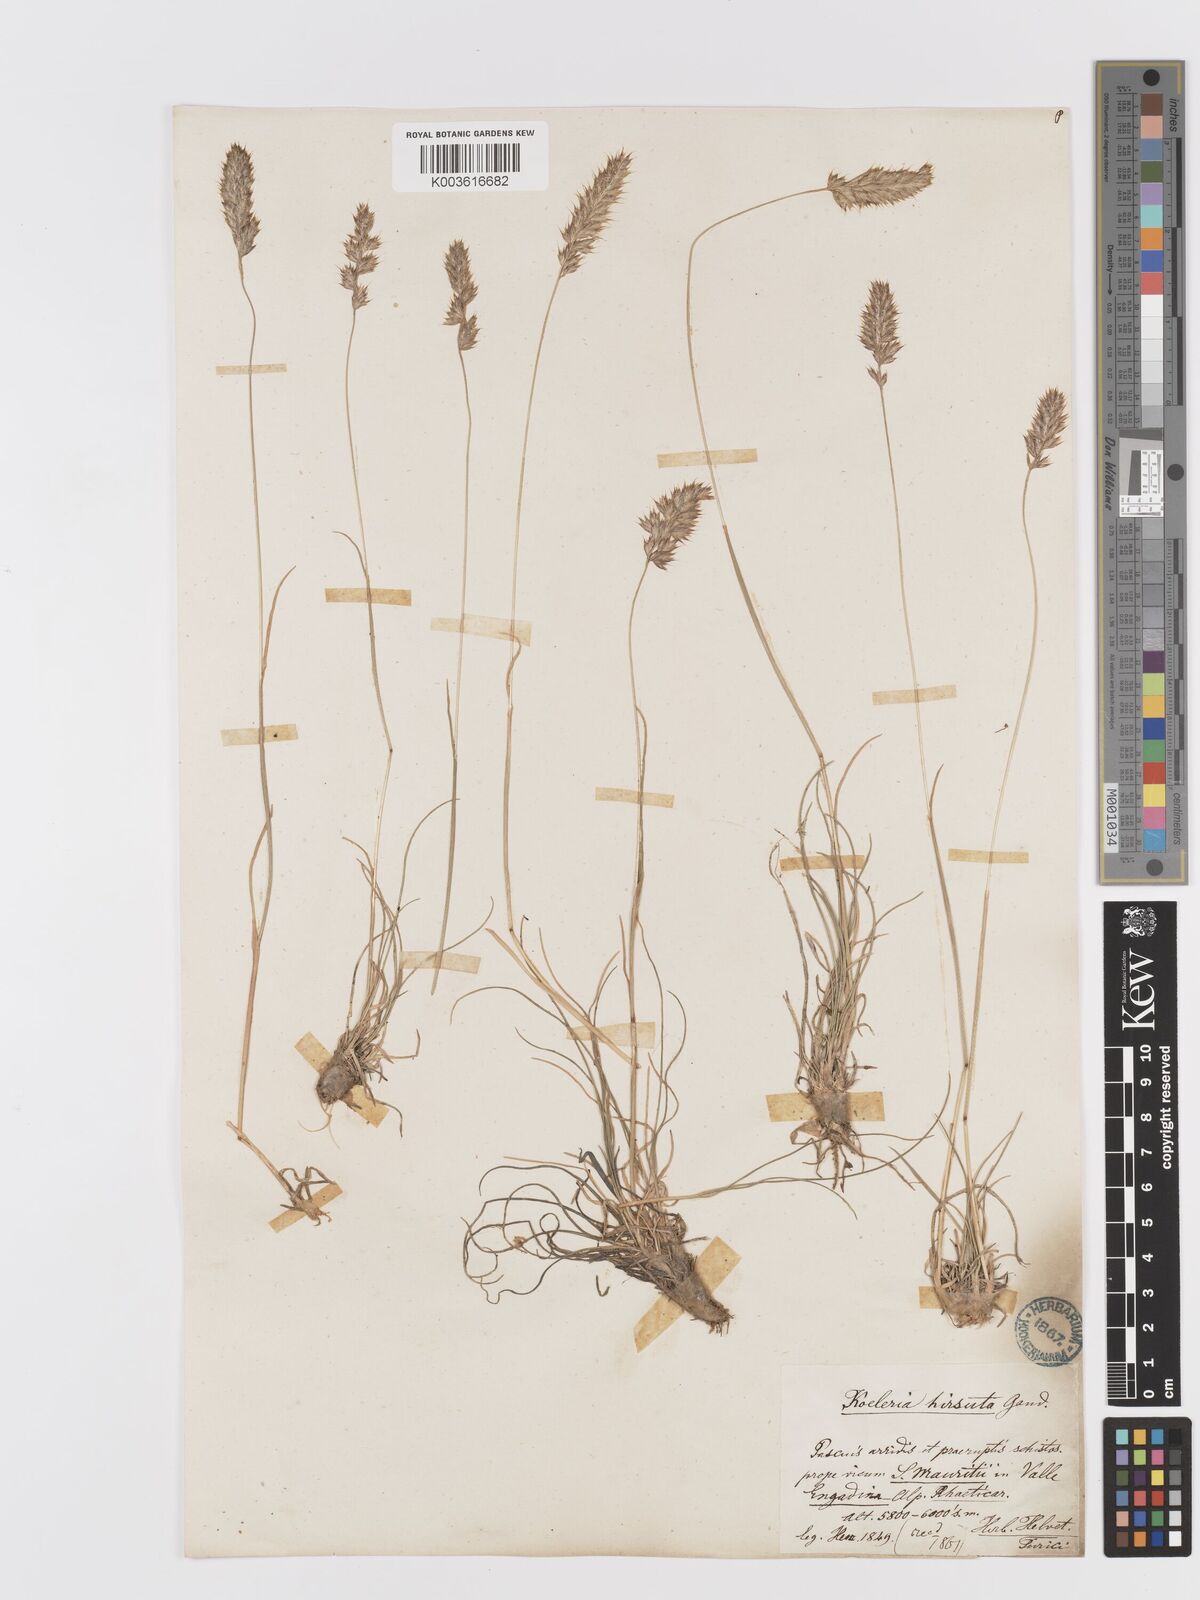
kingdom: Plantae
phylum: Tracheophyta
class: Liliopsida
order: Poales
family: Poaceae
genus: Koeleria
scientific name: Koeleria hirsuta
